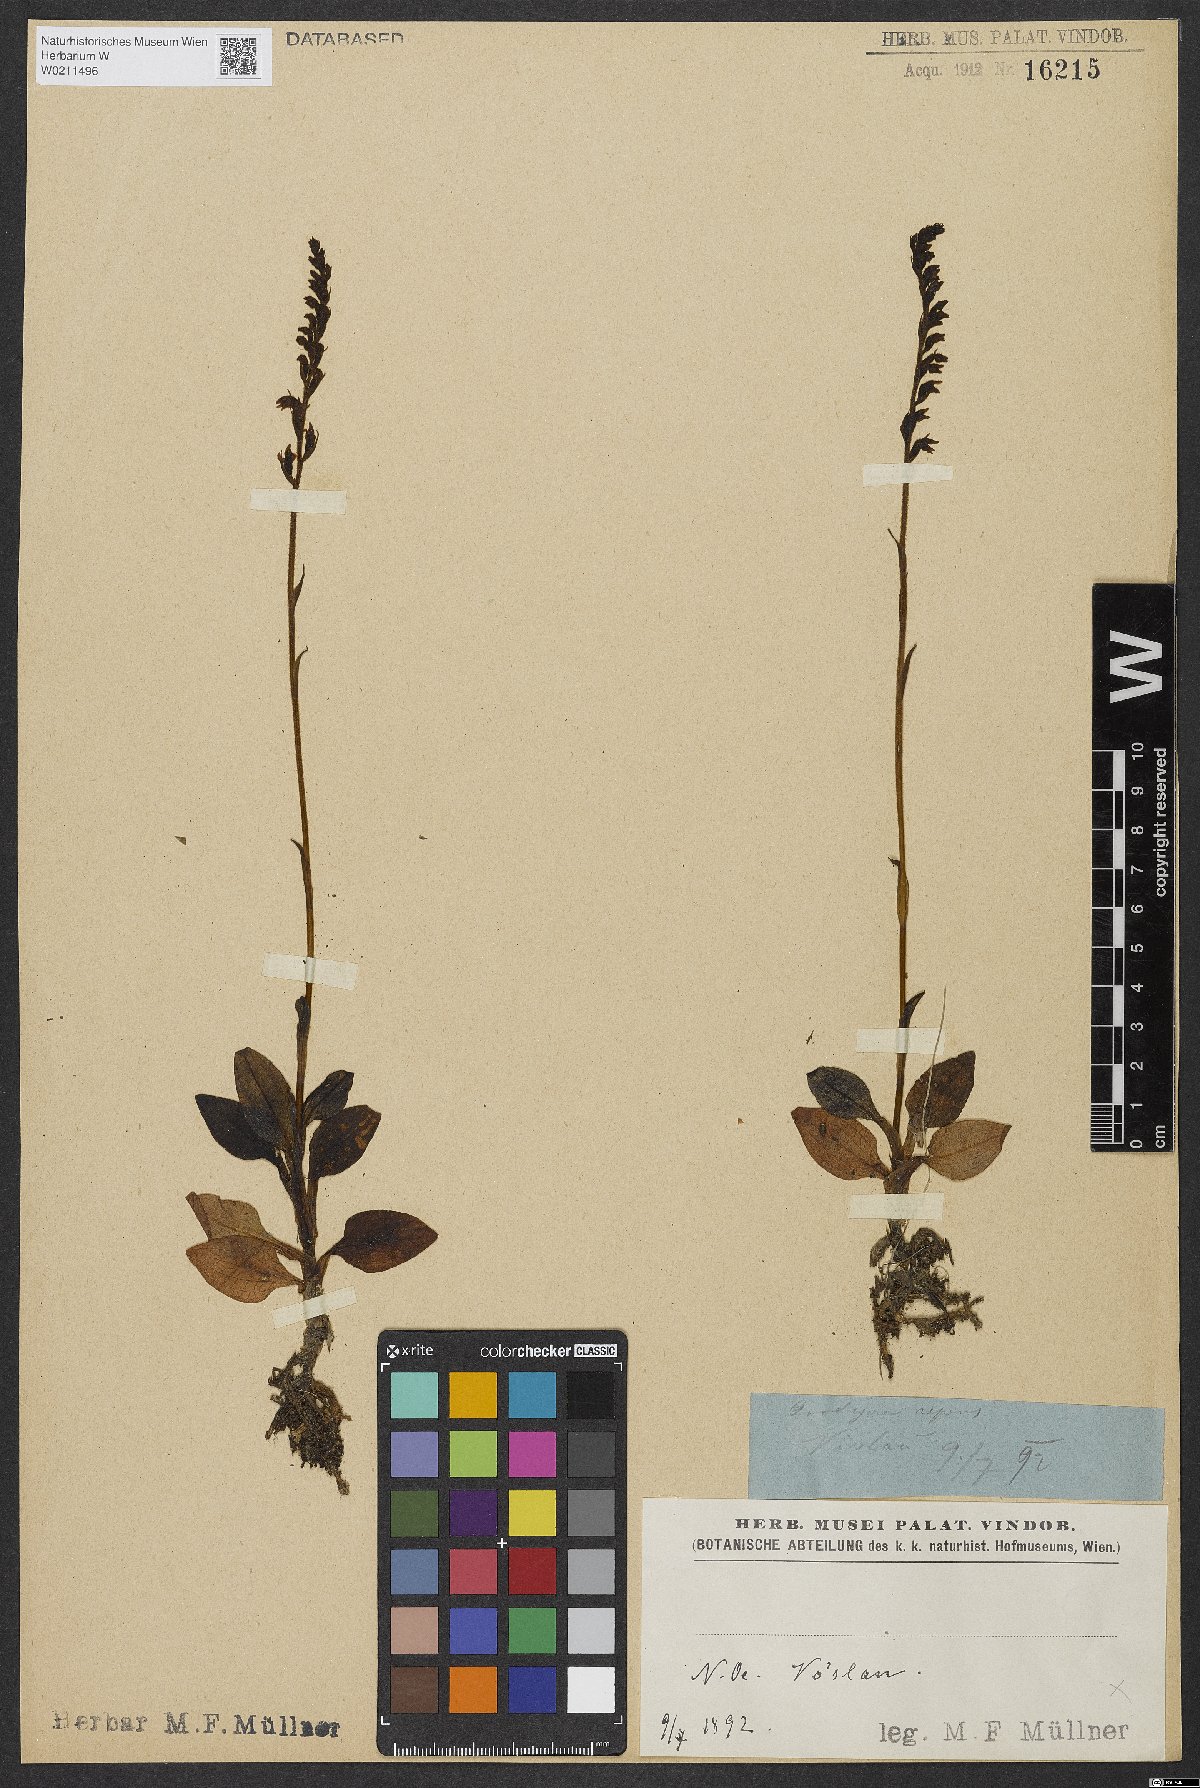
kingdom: Plantae
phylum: Tracheophyta
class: Liliopsida
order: Asparagales
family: Orchidaceae
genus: Goodyera
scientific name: Goodyera repens
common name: Creeping lady's-tresses
